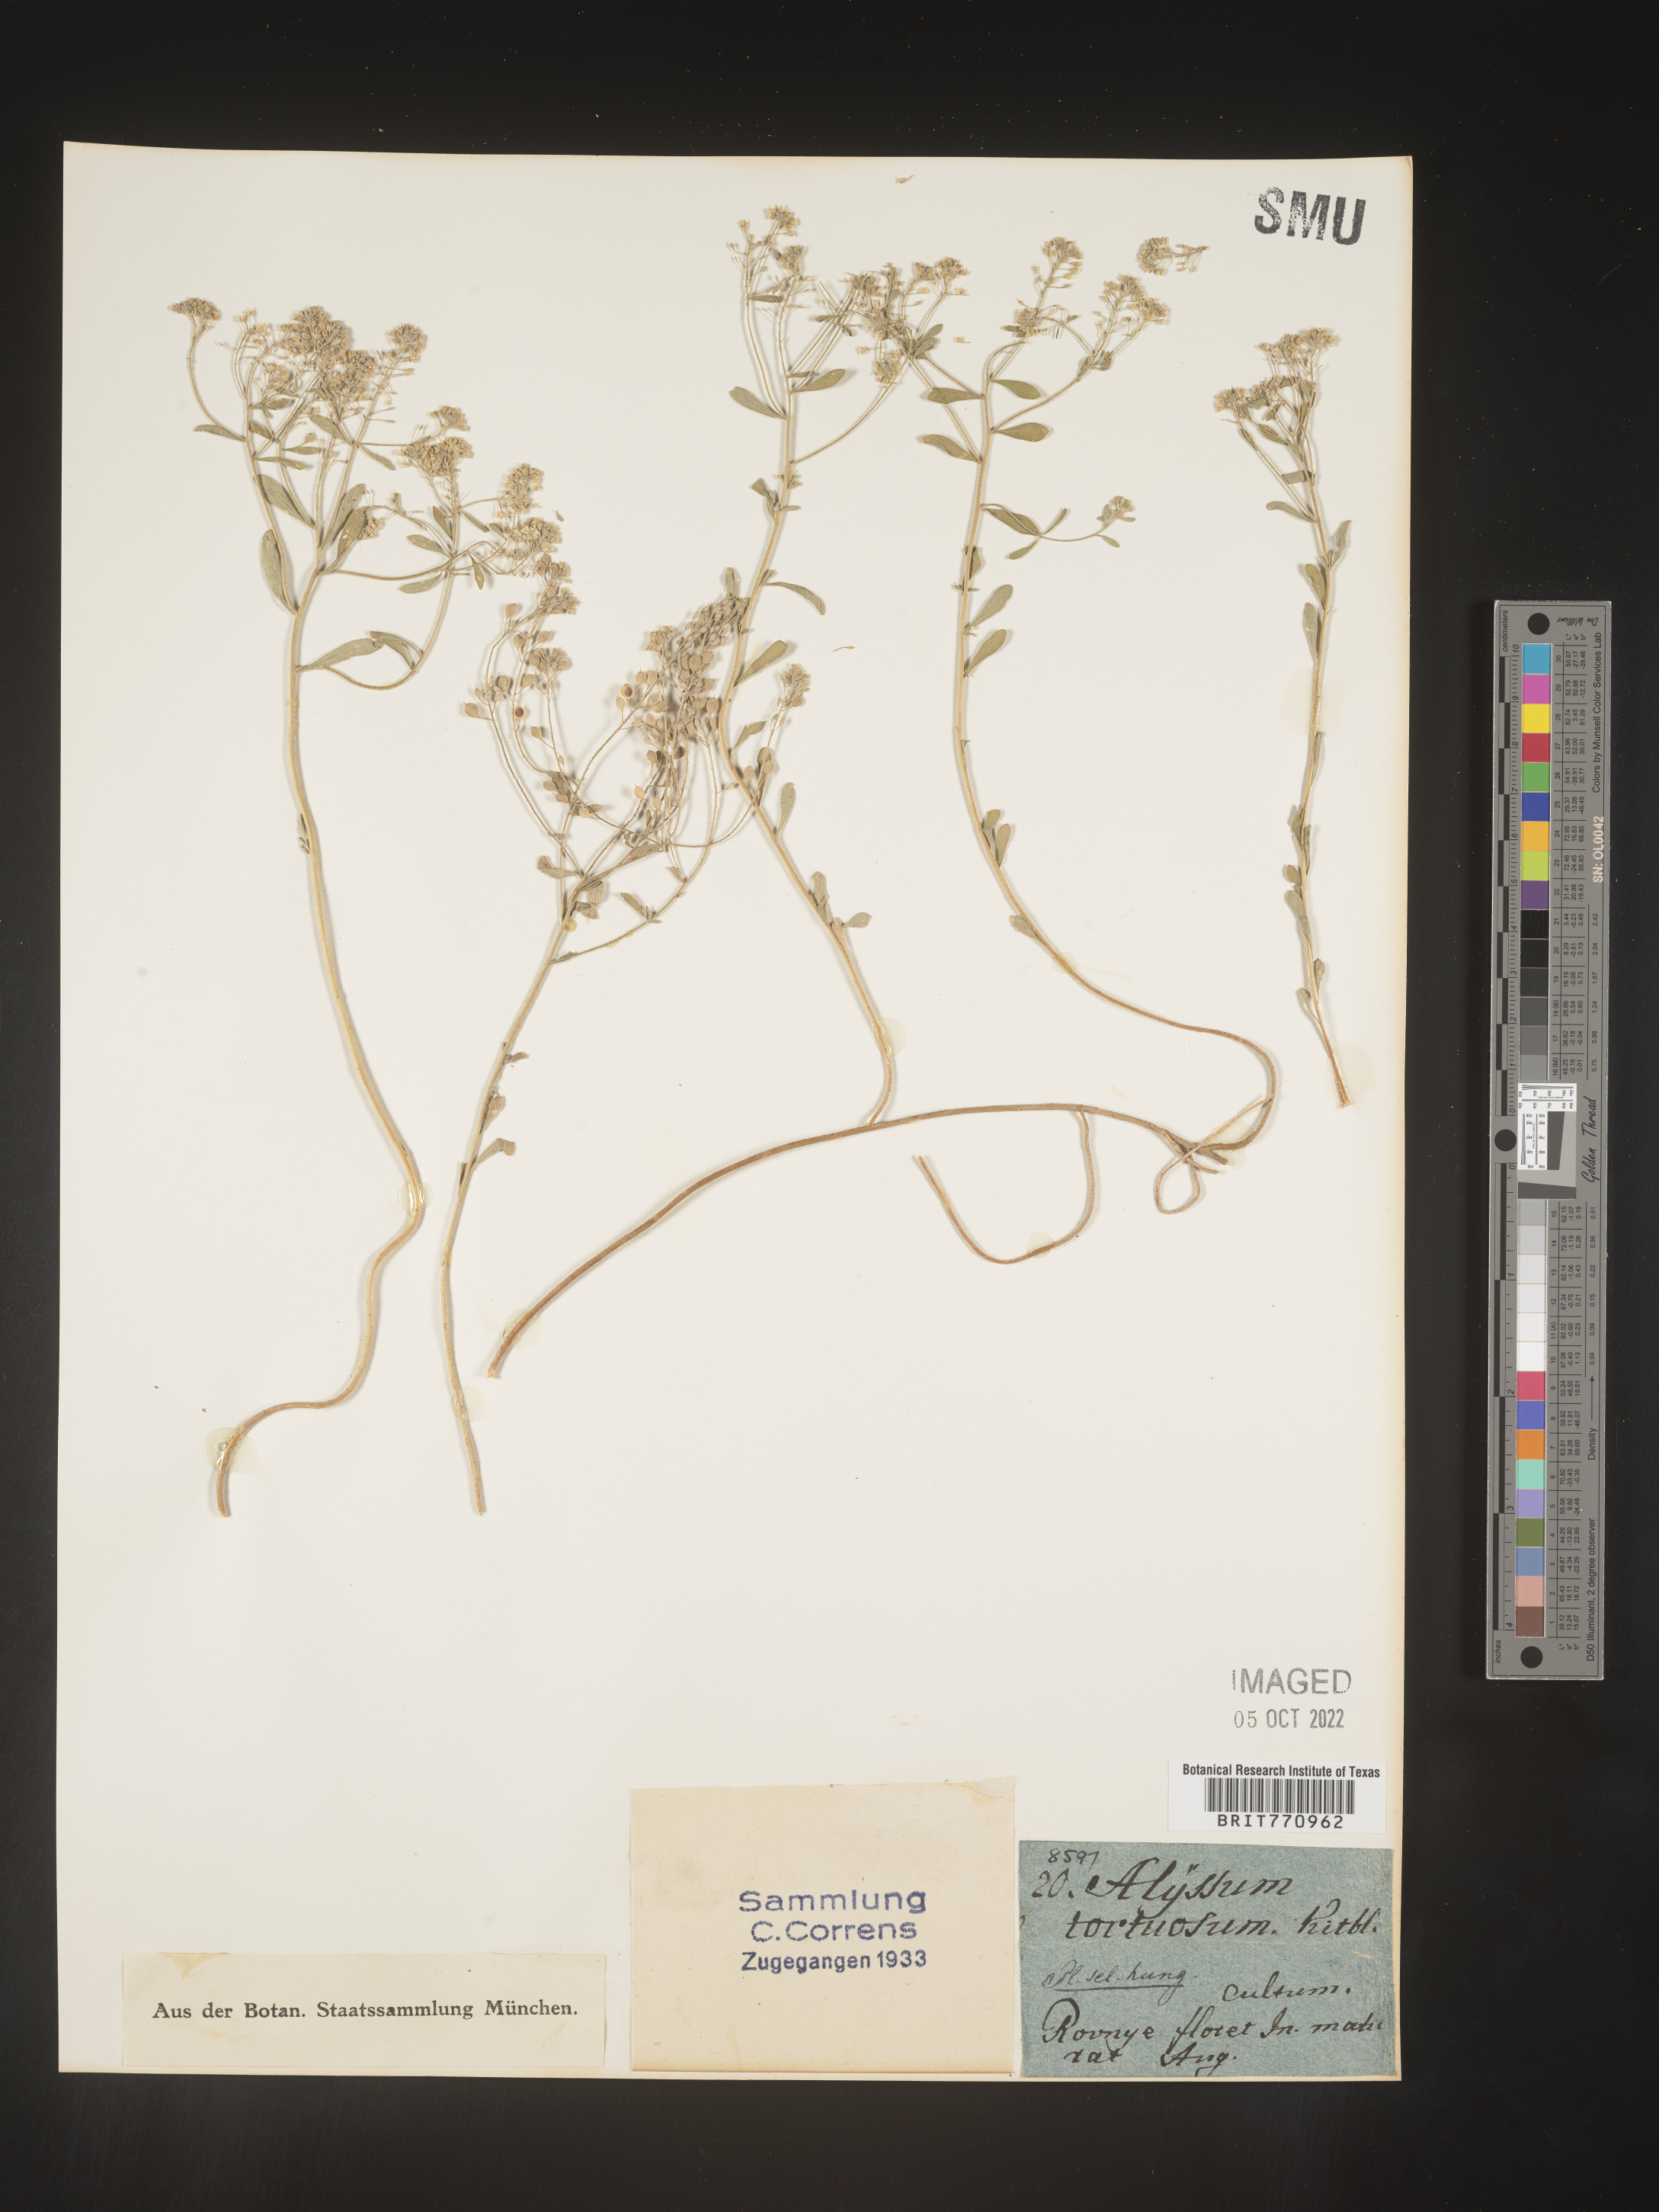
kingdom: Plantae
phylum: Tracheophyta
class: Magnoliopsida
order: Brassicales
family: Brassicaceae
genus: Alyssum
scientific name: Alyssum
